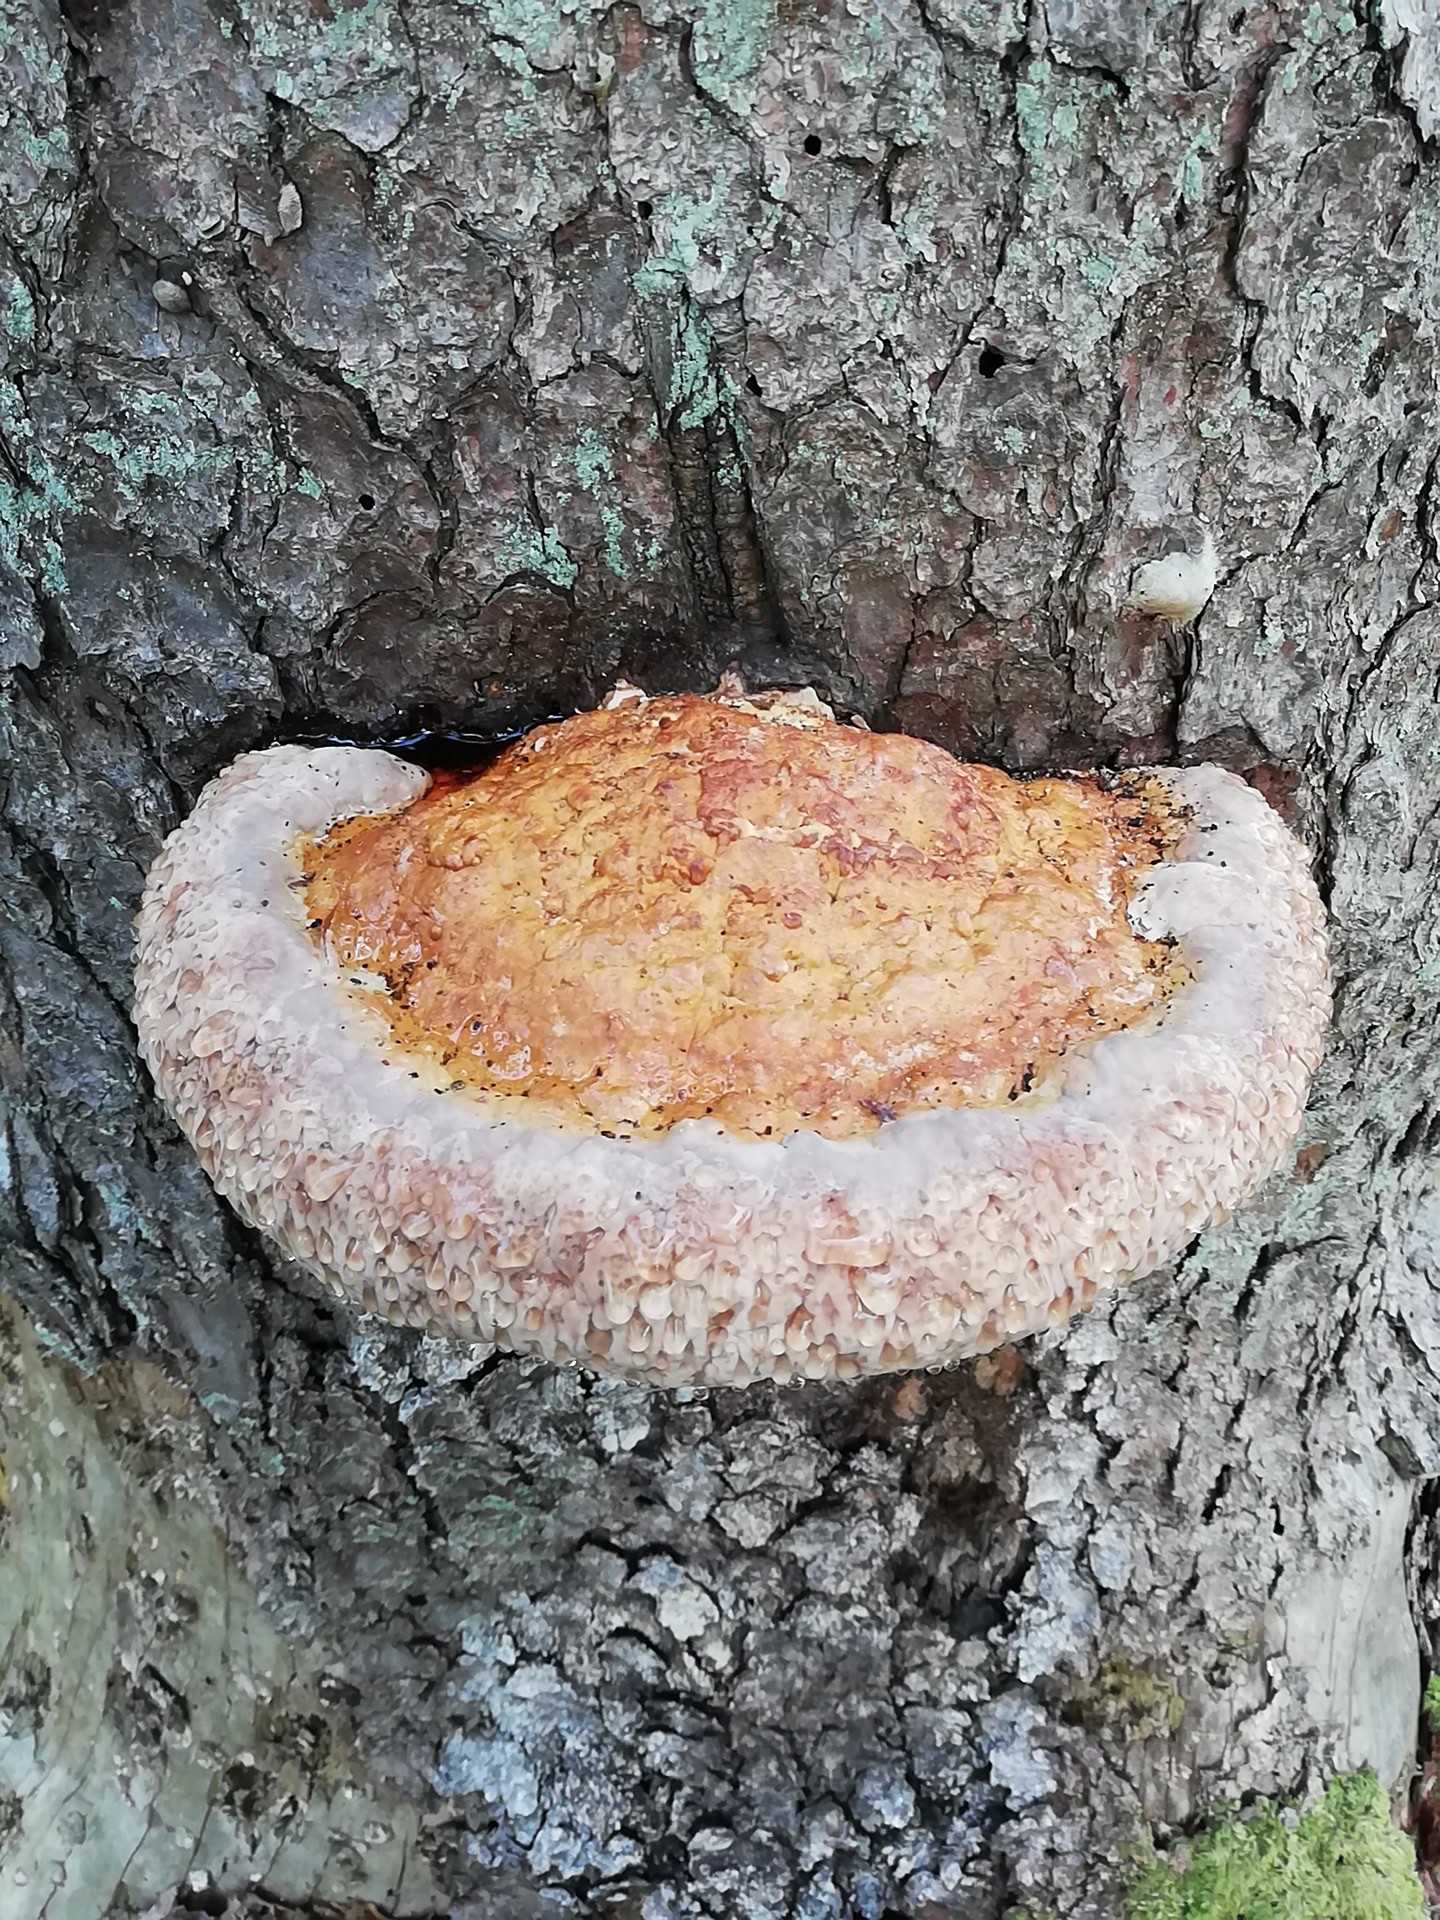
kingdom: Fungi
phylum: Basidiomycota
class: Agaricomycetes
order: Polyporales
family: Fomitopsidaceae
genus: Fomitopsis
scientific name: Fomitopsis pinicola
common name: randbæltet hovporesvamp
